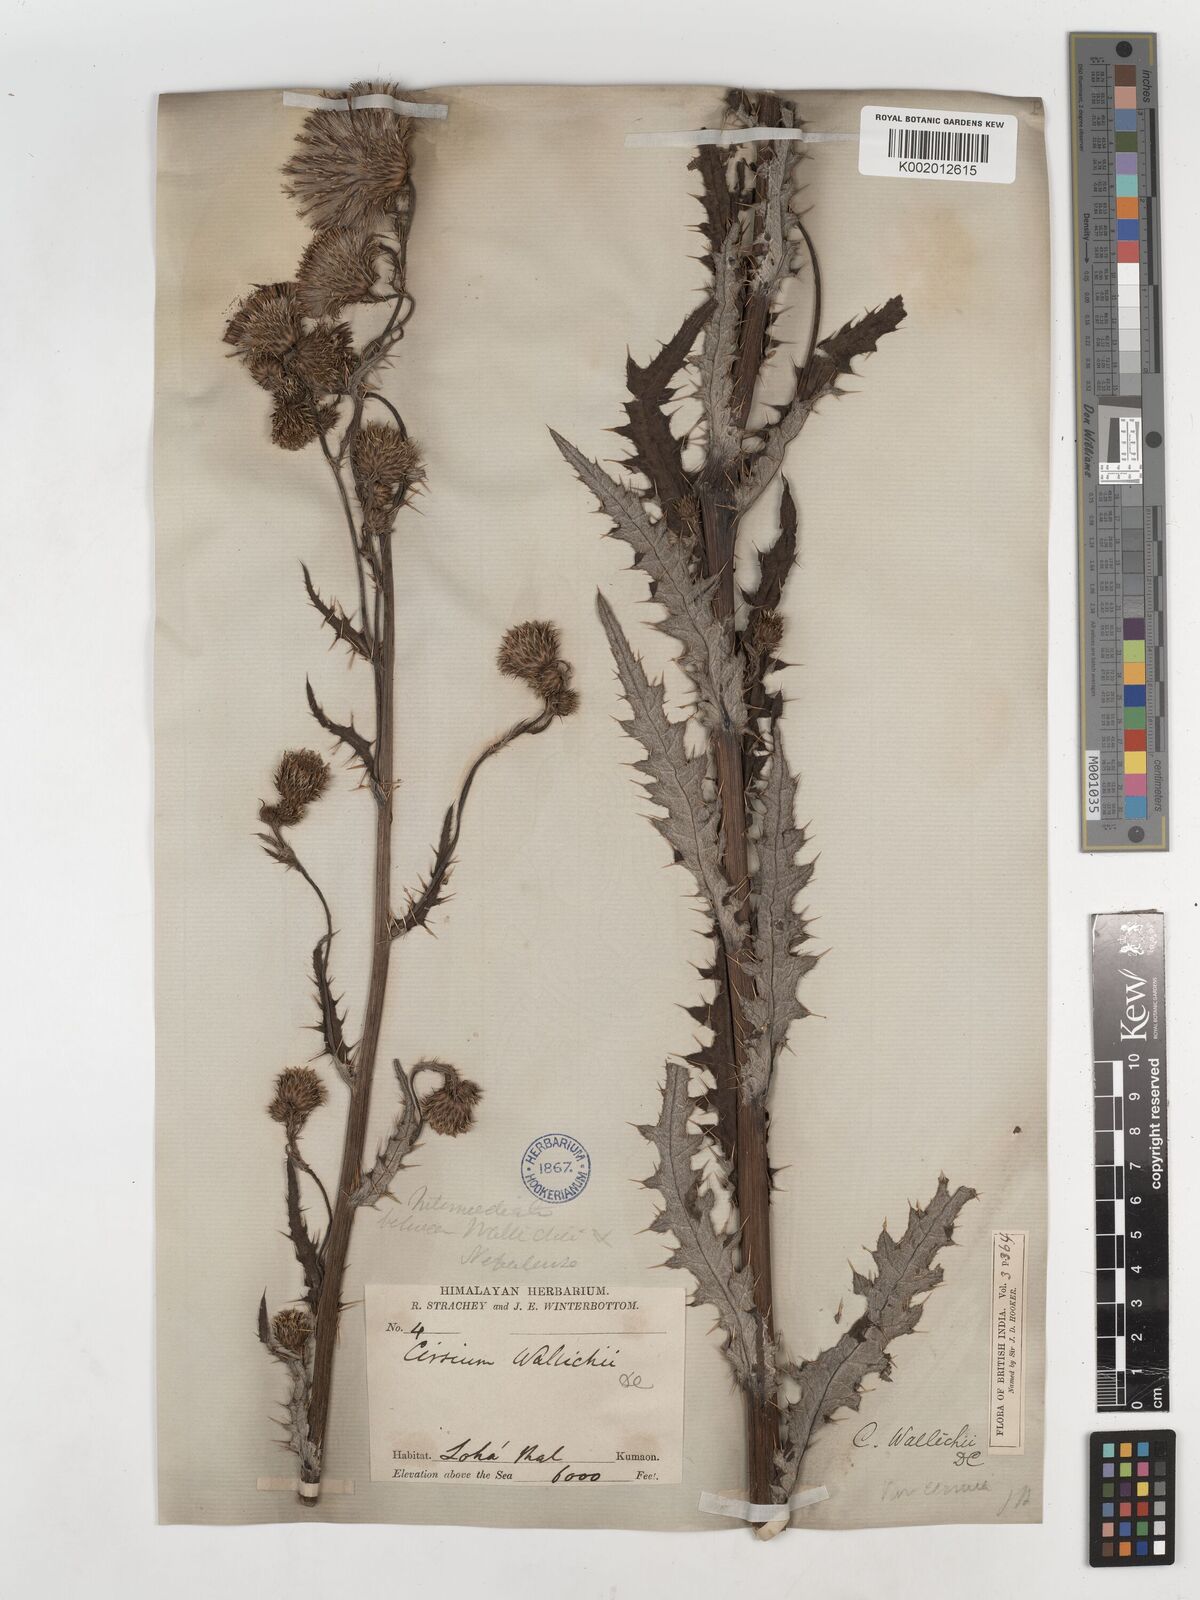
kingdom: Plantae
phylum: Tracheophyta
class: Magnoliopsida
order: Asterales
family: Asteraceae
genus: Cirsium
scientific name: Cirsium wallichii
